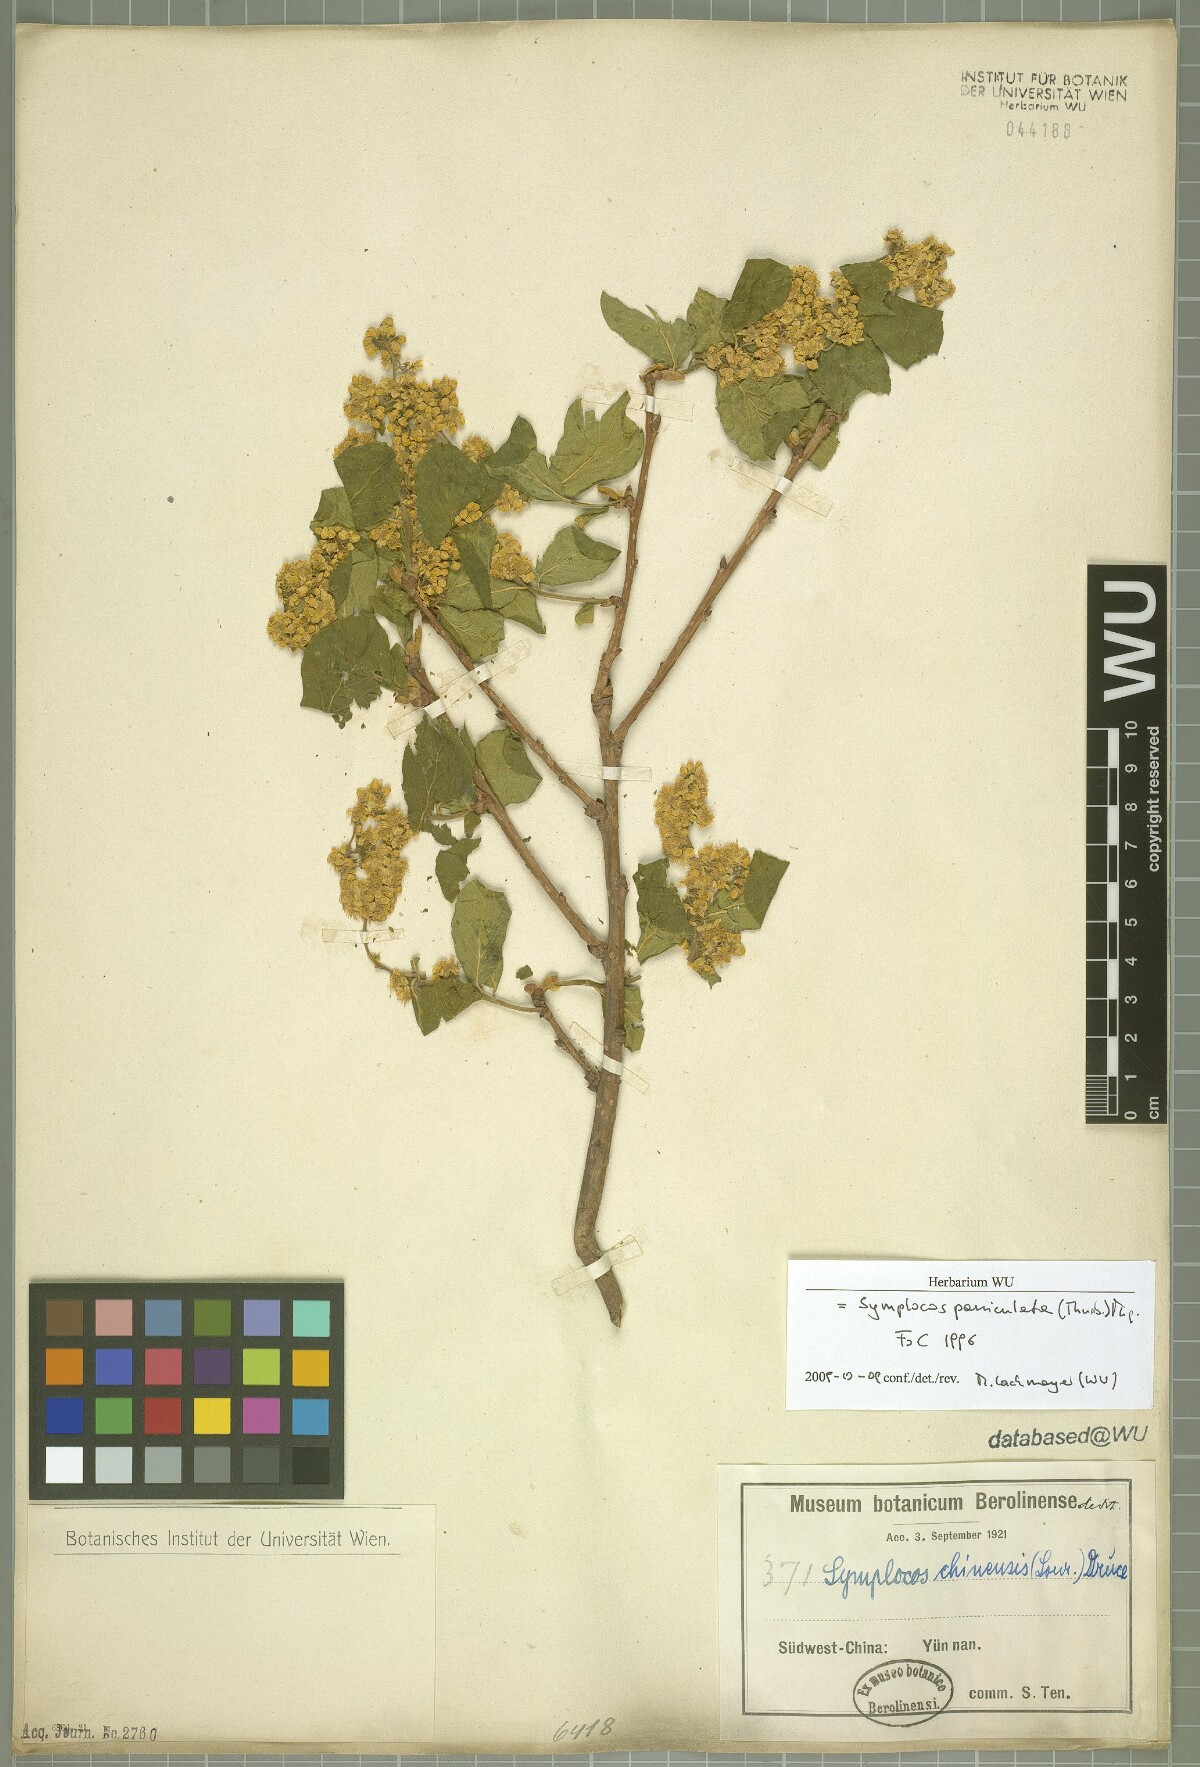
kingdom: Plantae
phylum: Tracheophyta
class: Magnoliopsida
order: Ericales
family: Symplocaceae
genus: Symplocos
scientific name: Symplocos paniculata
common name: Sapphire-berry
